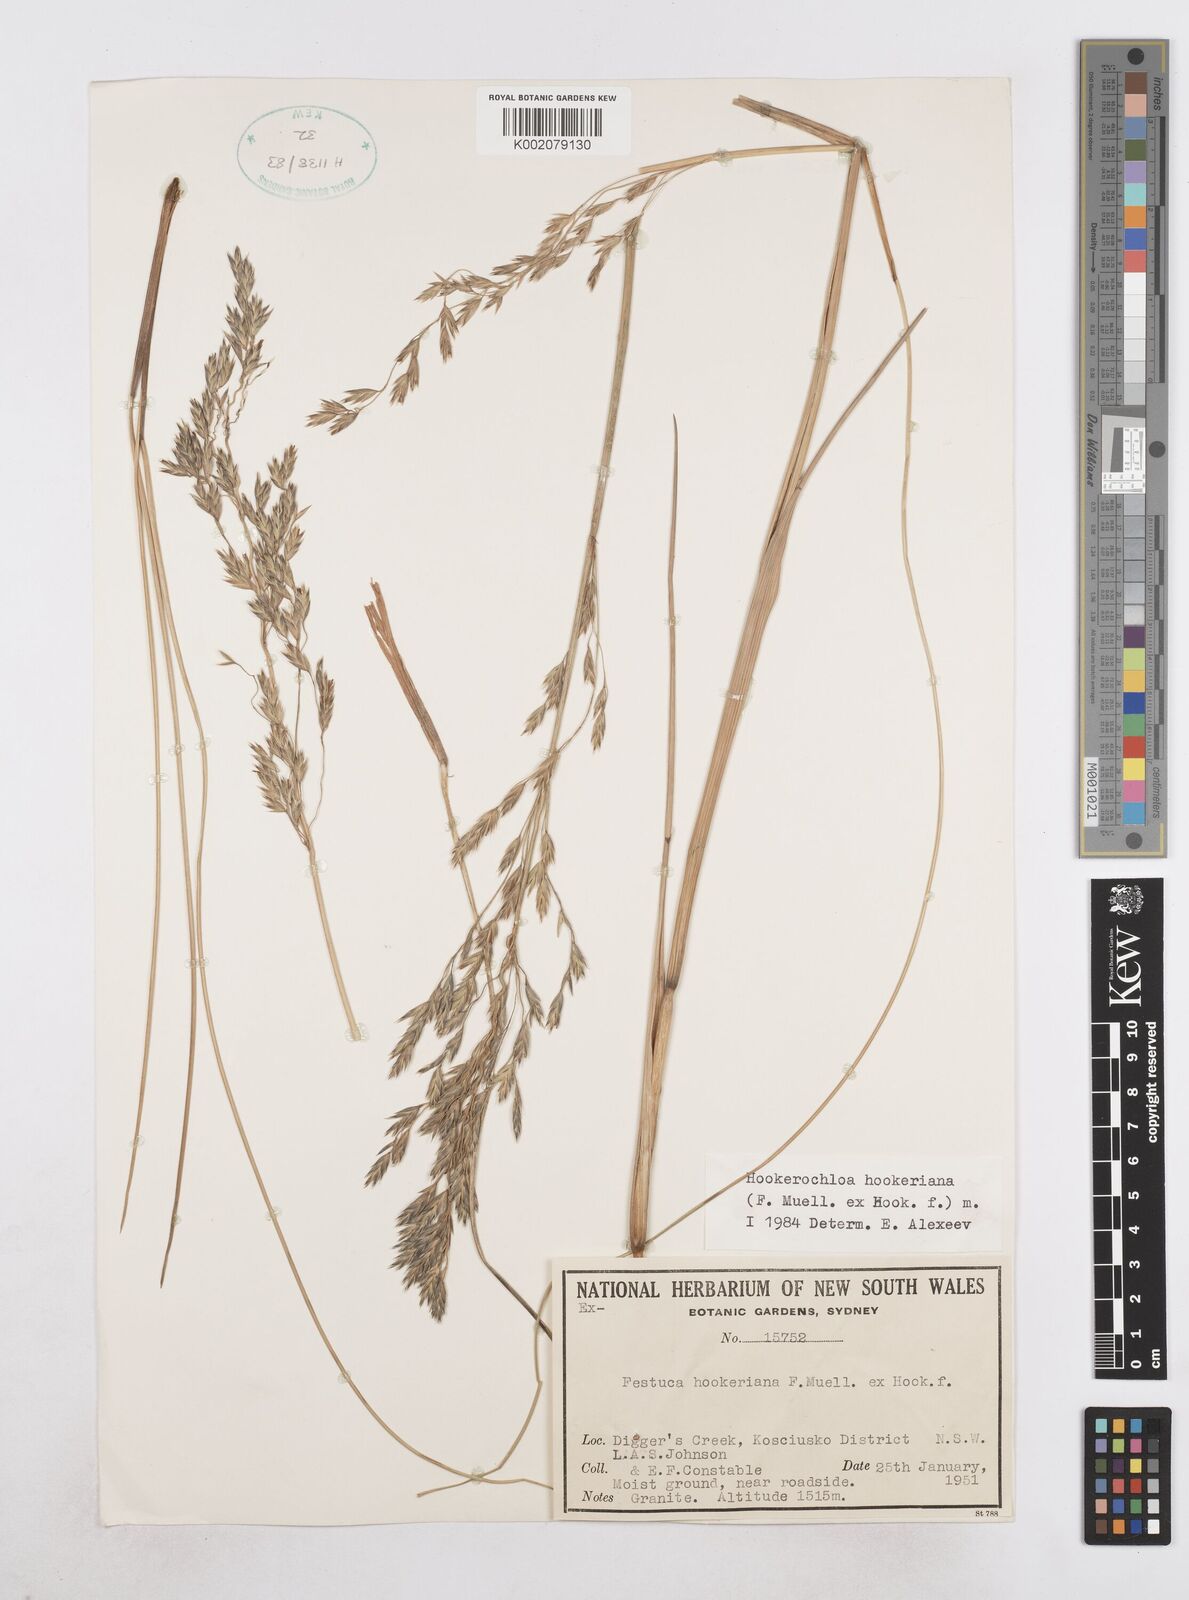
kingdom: Plantae
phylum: Tracheophyta
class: Liliopsida
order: Poales
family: Poaceae
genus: Hookerochloa
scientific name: Hookerochloa hookeriana
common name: Hooker's-fescue
